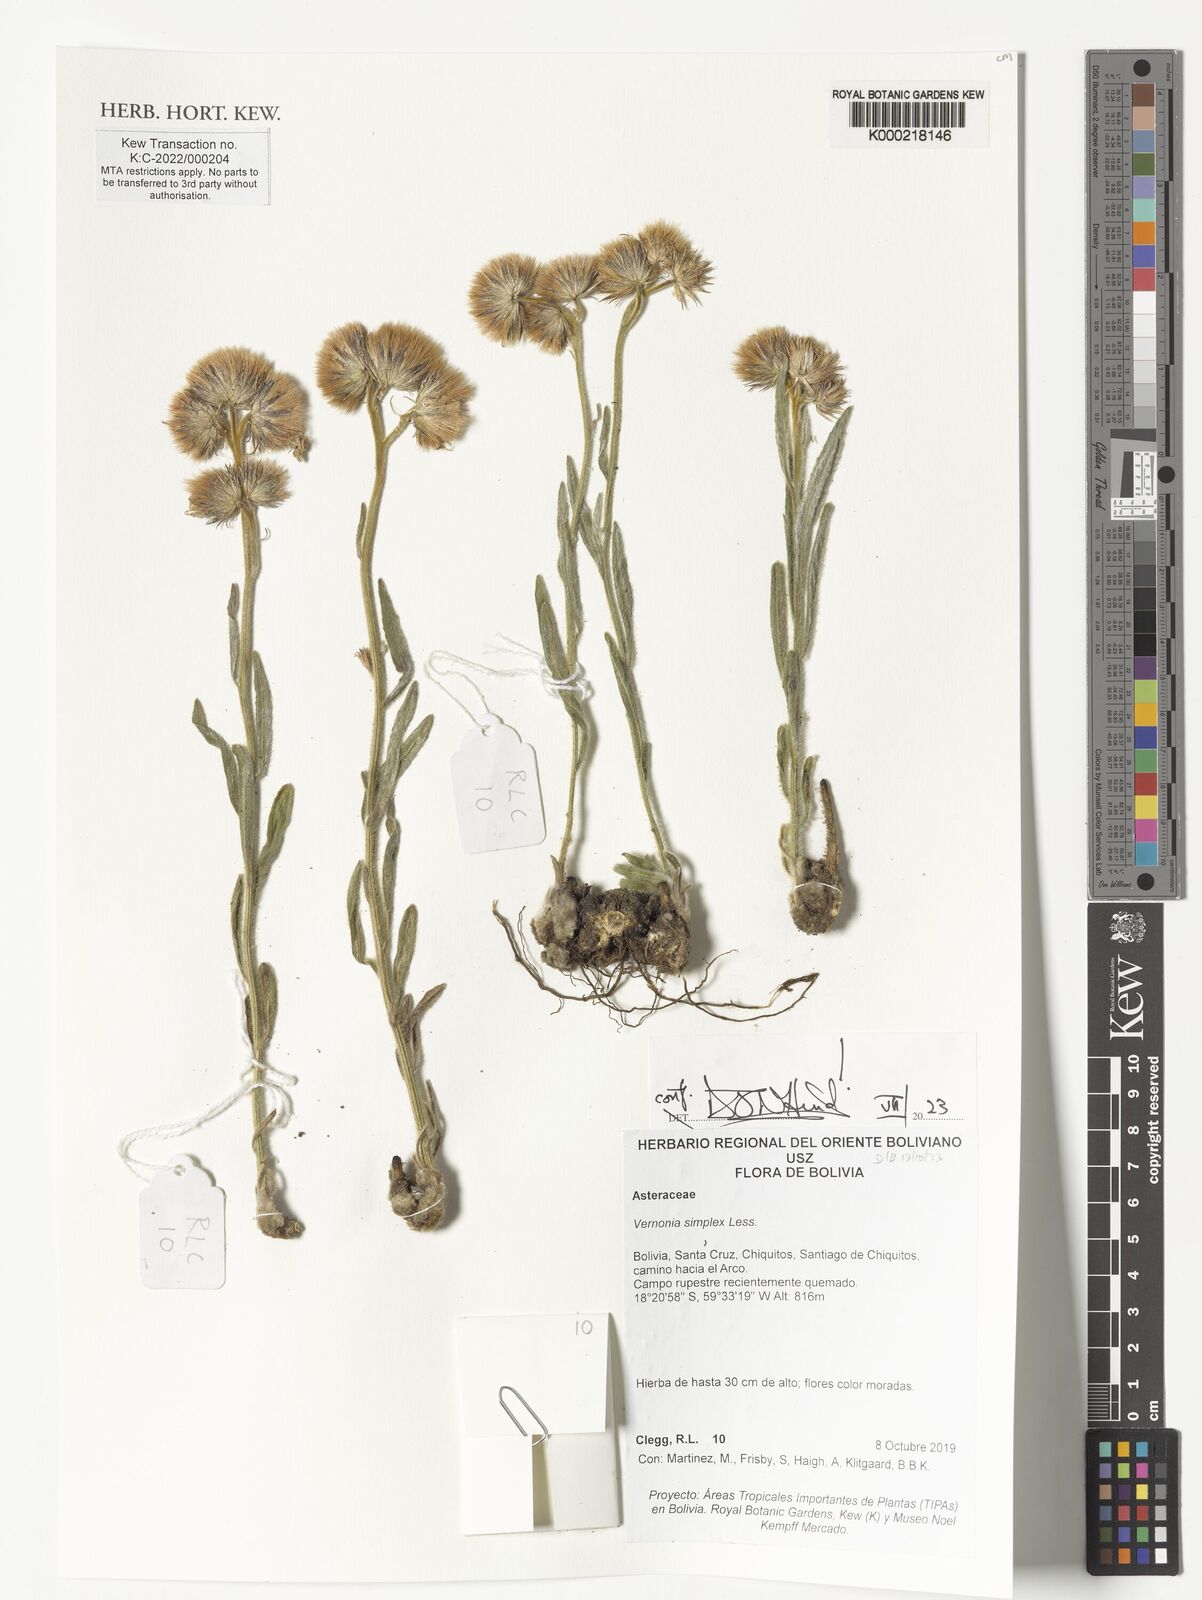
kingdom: Plantae
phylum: Tracheophyta
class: Magnoliopsida
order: Asterales
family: Asteraceae
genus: Chrysolaena
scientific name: Chrysolaena simplex
